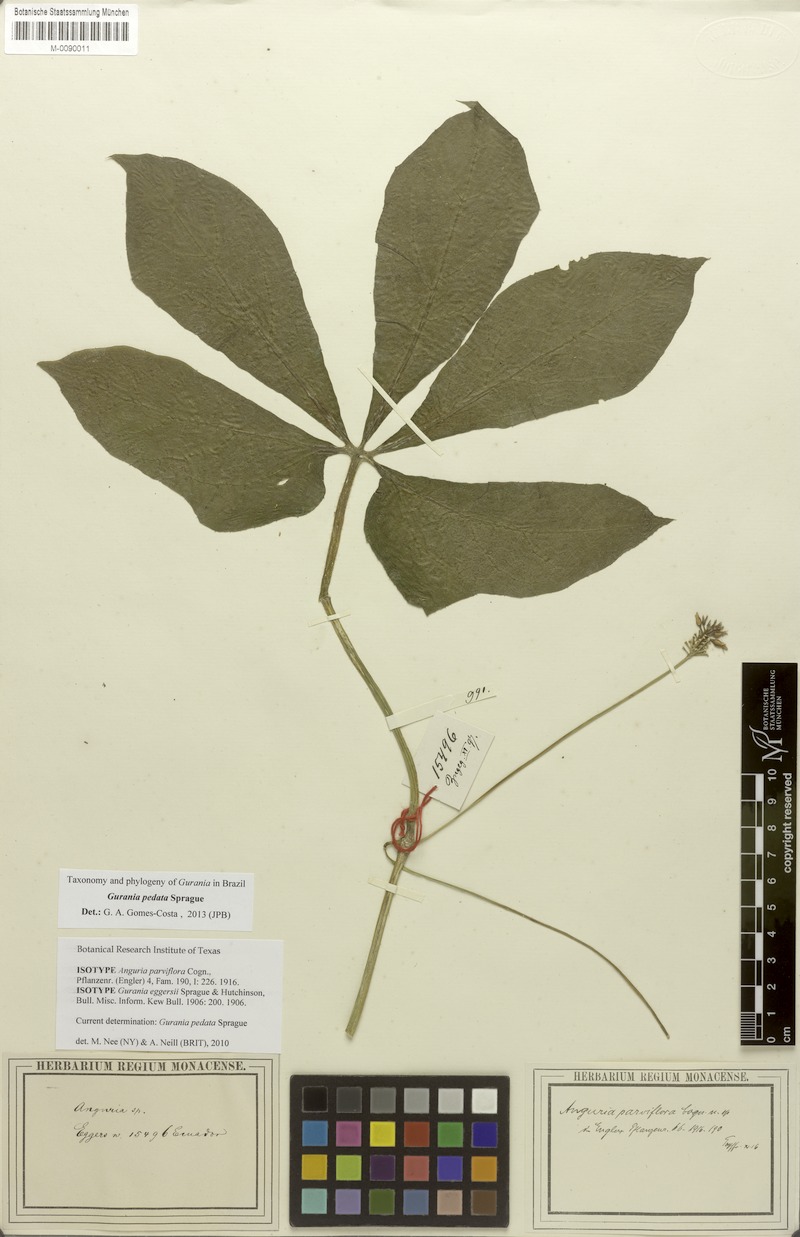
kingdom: Plantae
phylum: Tracheophyta
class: Magnoliopsida
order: Cucurbitales
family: Cucurbitaceae
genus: Gurania
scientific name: Gurania pedata
